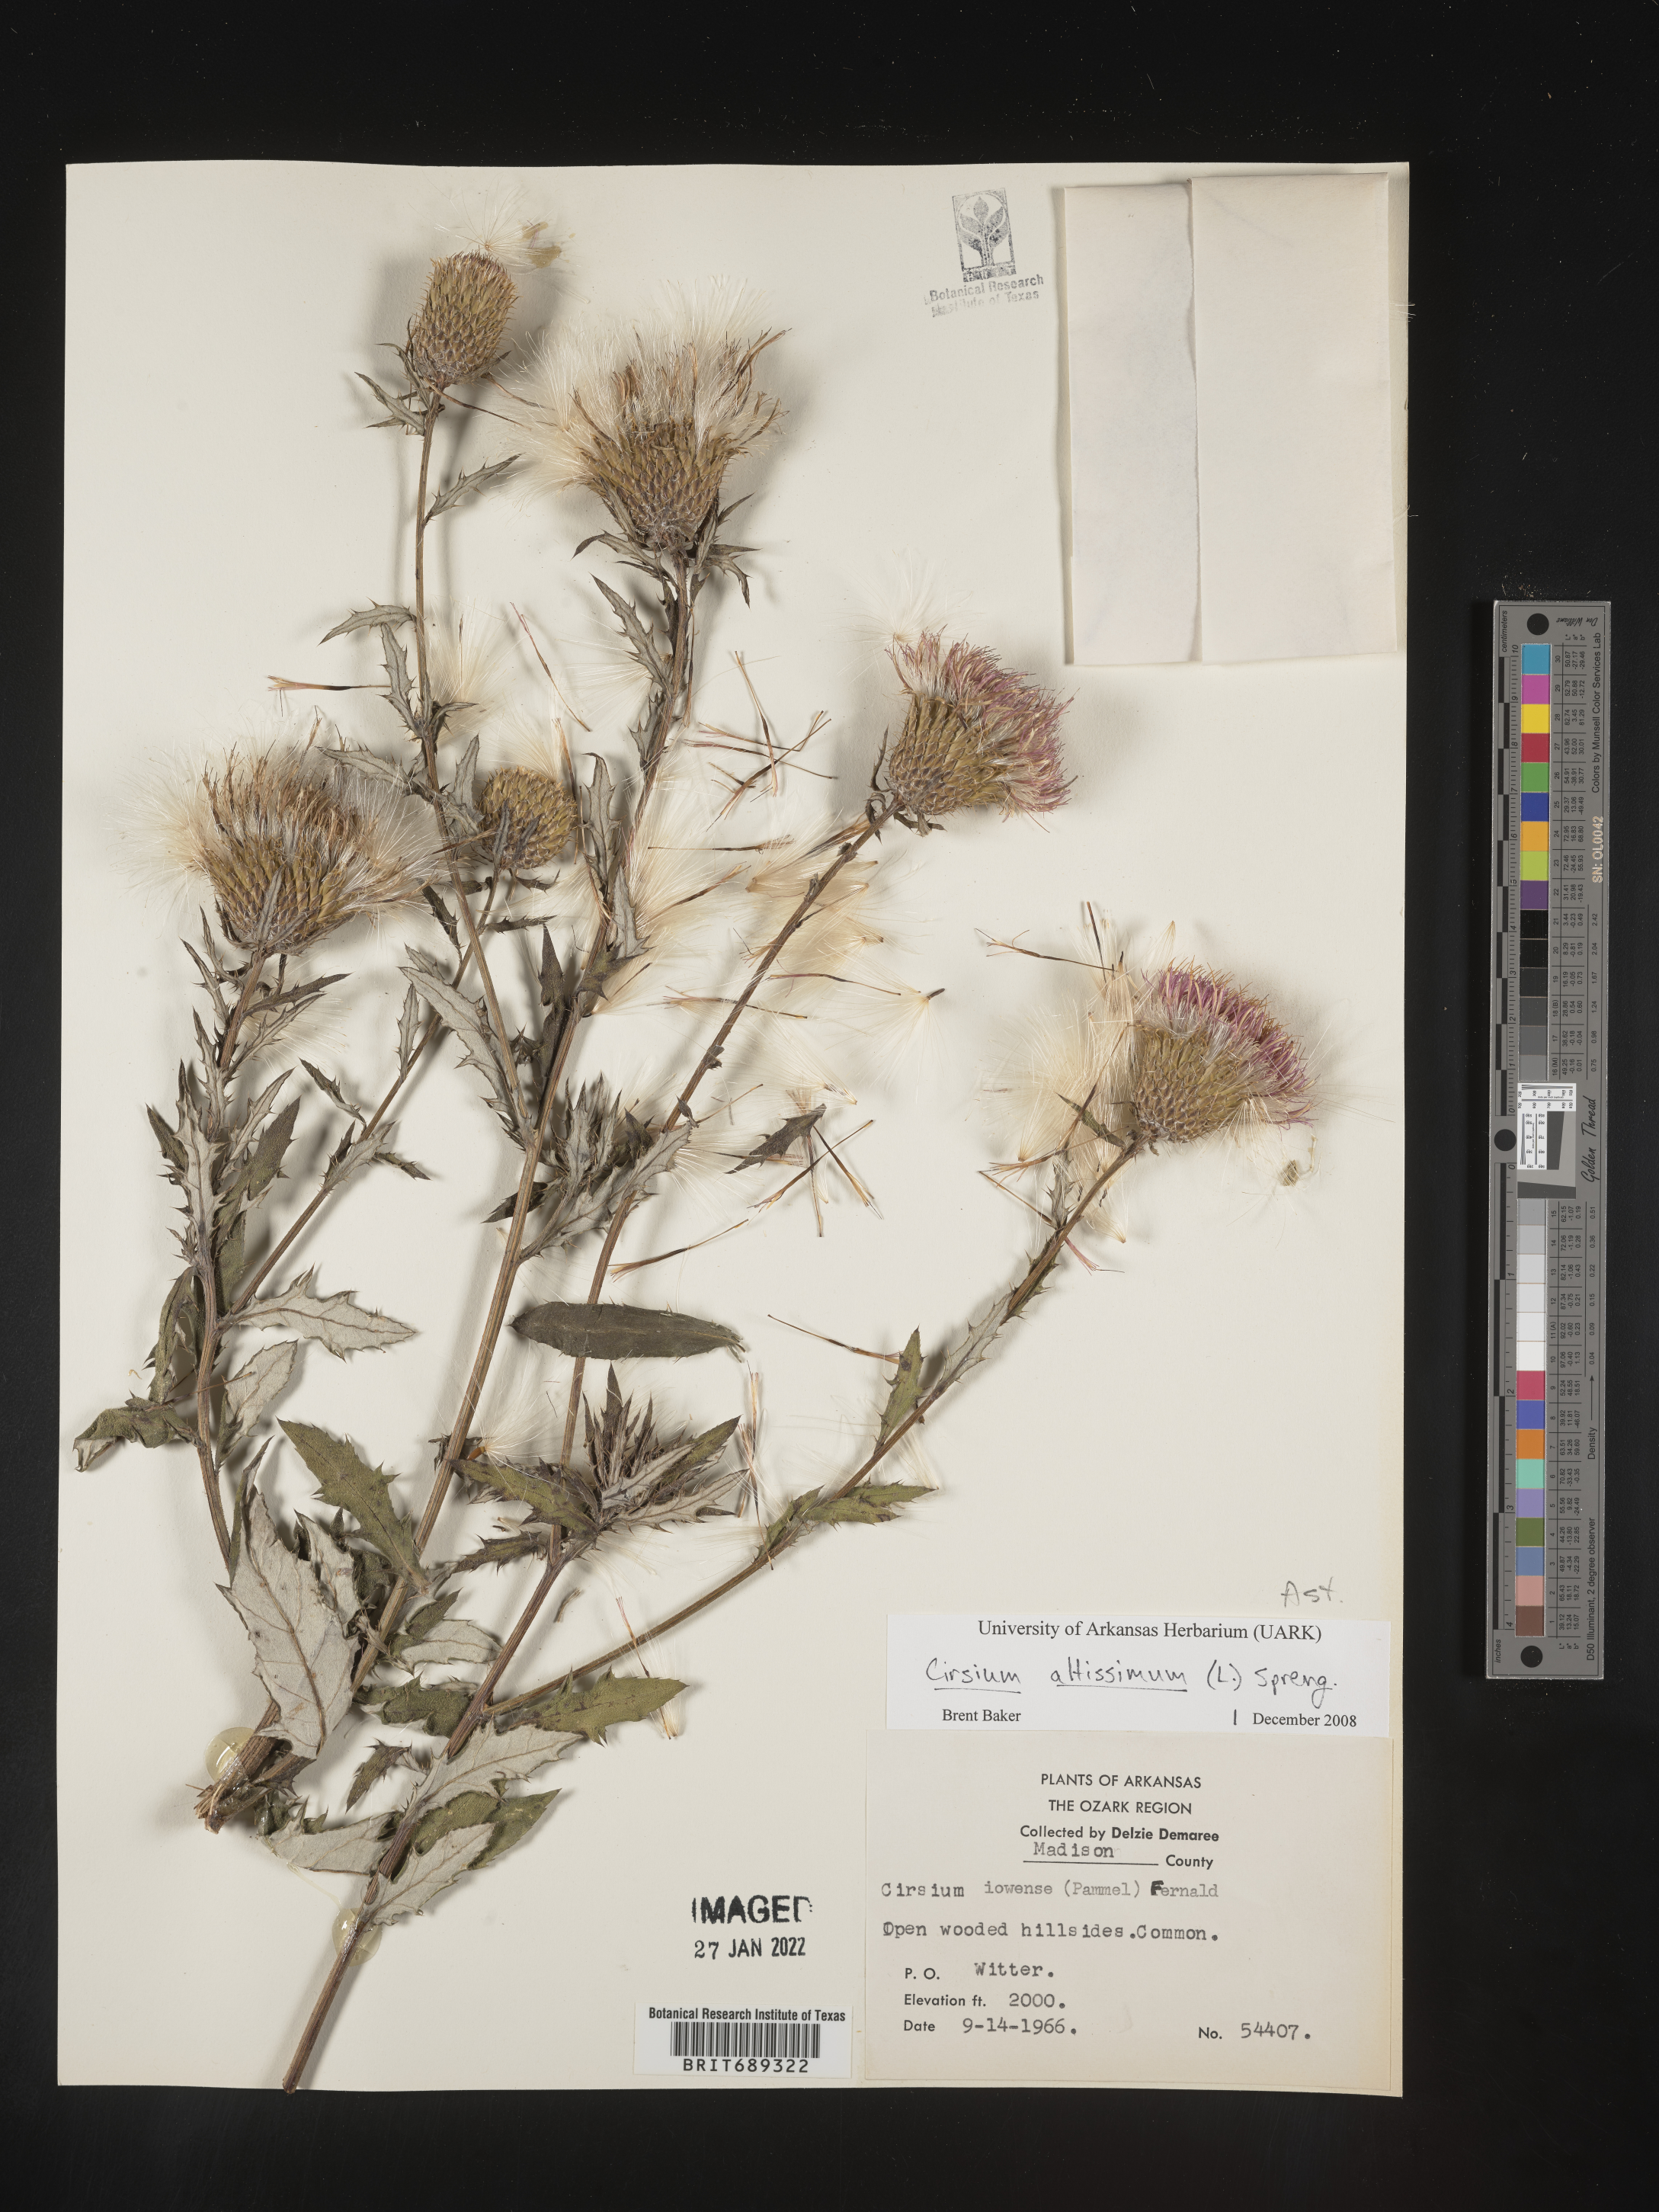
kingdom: Plantae
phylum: Tracheophyta
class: Magnoliopsida
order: Asterales
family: Asteraceae
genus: Cirsium
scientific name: Cirsium altissimum
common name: Roadside thistle
